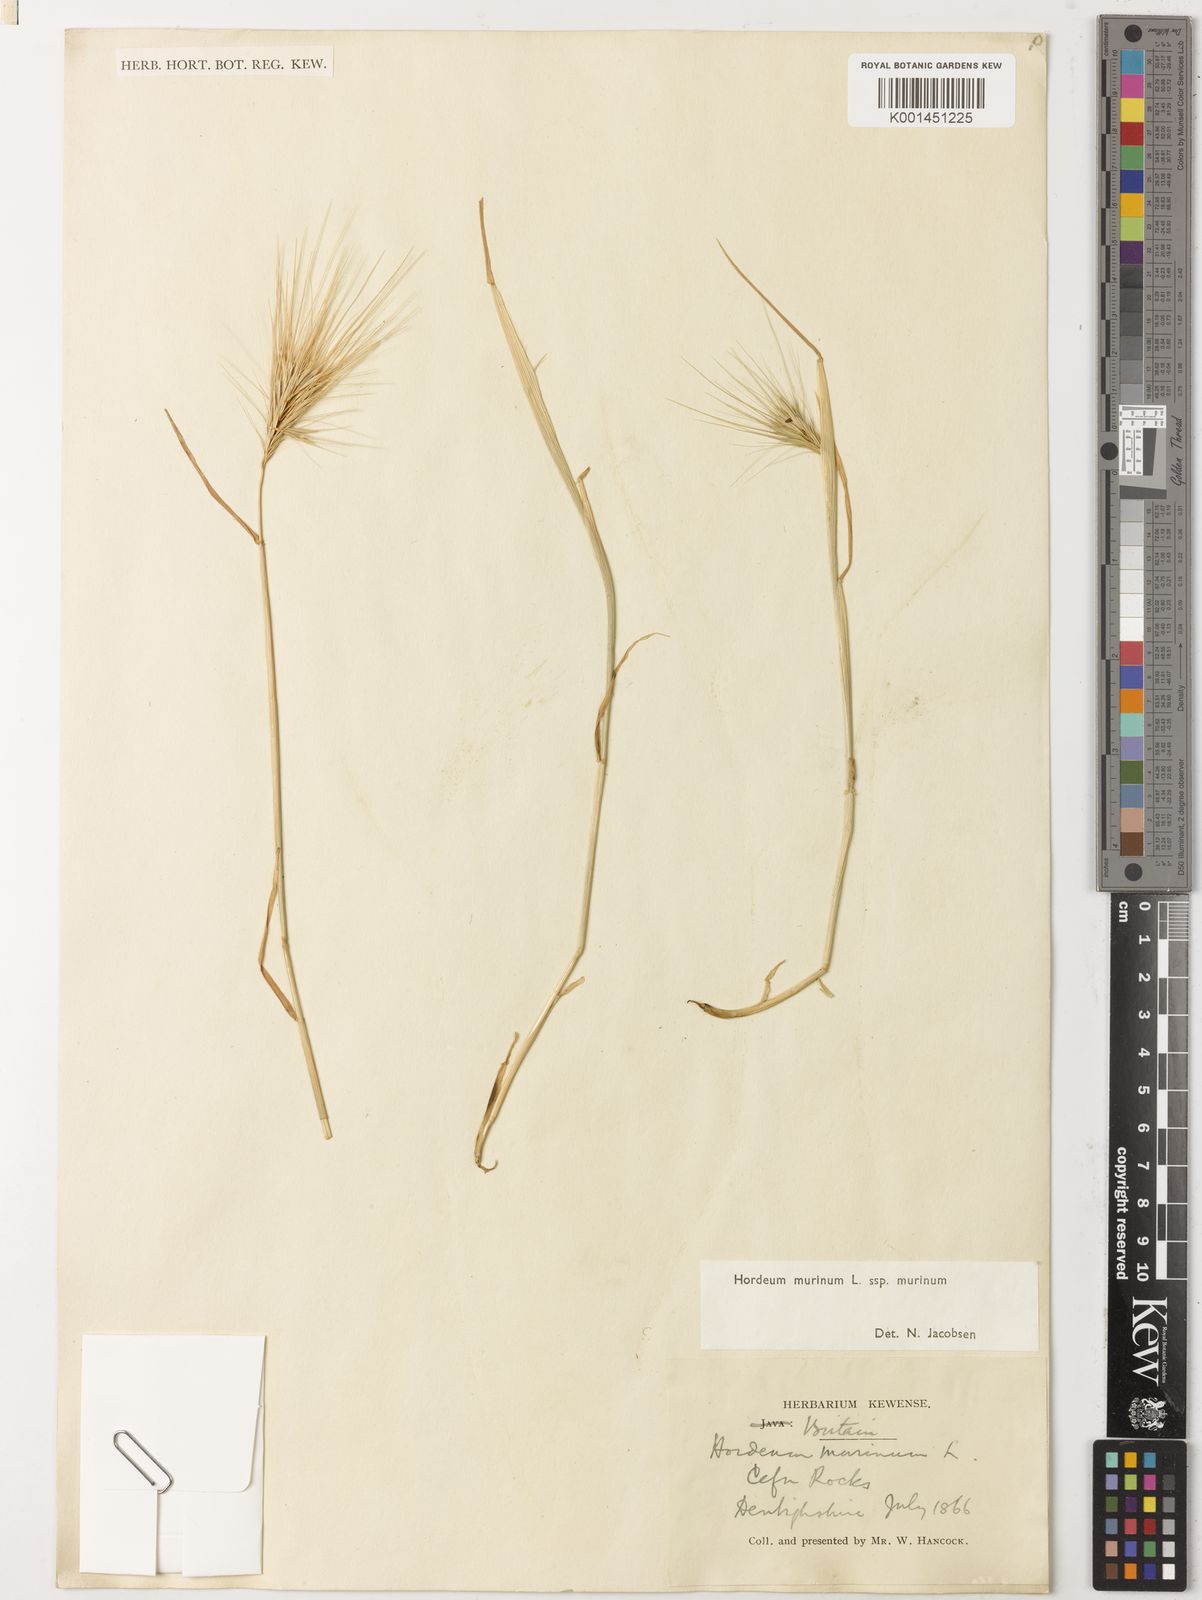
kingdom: Plantae
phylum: Tracheophyta
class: Liliopsida
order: Poales
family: Poaceae
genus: Hordeum
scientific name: Hordeum murinum
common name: Wall barley
